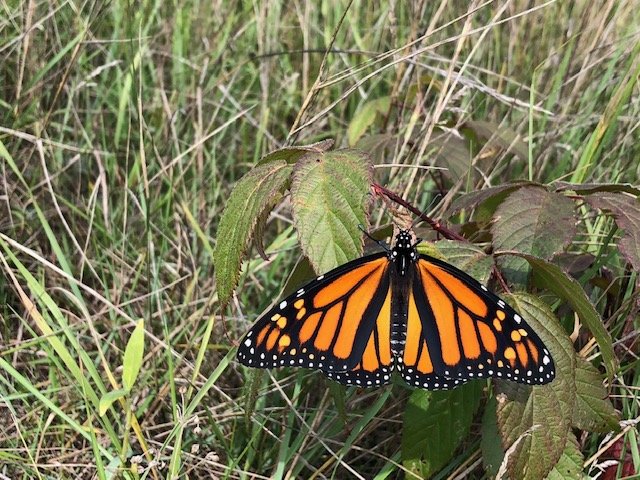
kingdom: Animalia
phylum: Arthropoda
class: Insecta
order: Lepidoptera
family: Nymphalidae
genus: Danaus
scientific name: Danaus plexippus
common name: Monarch
